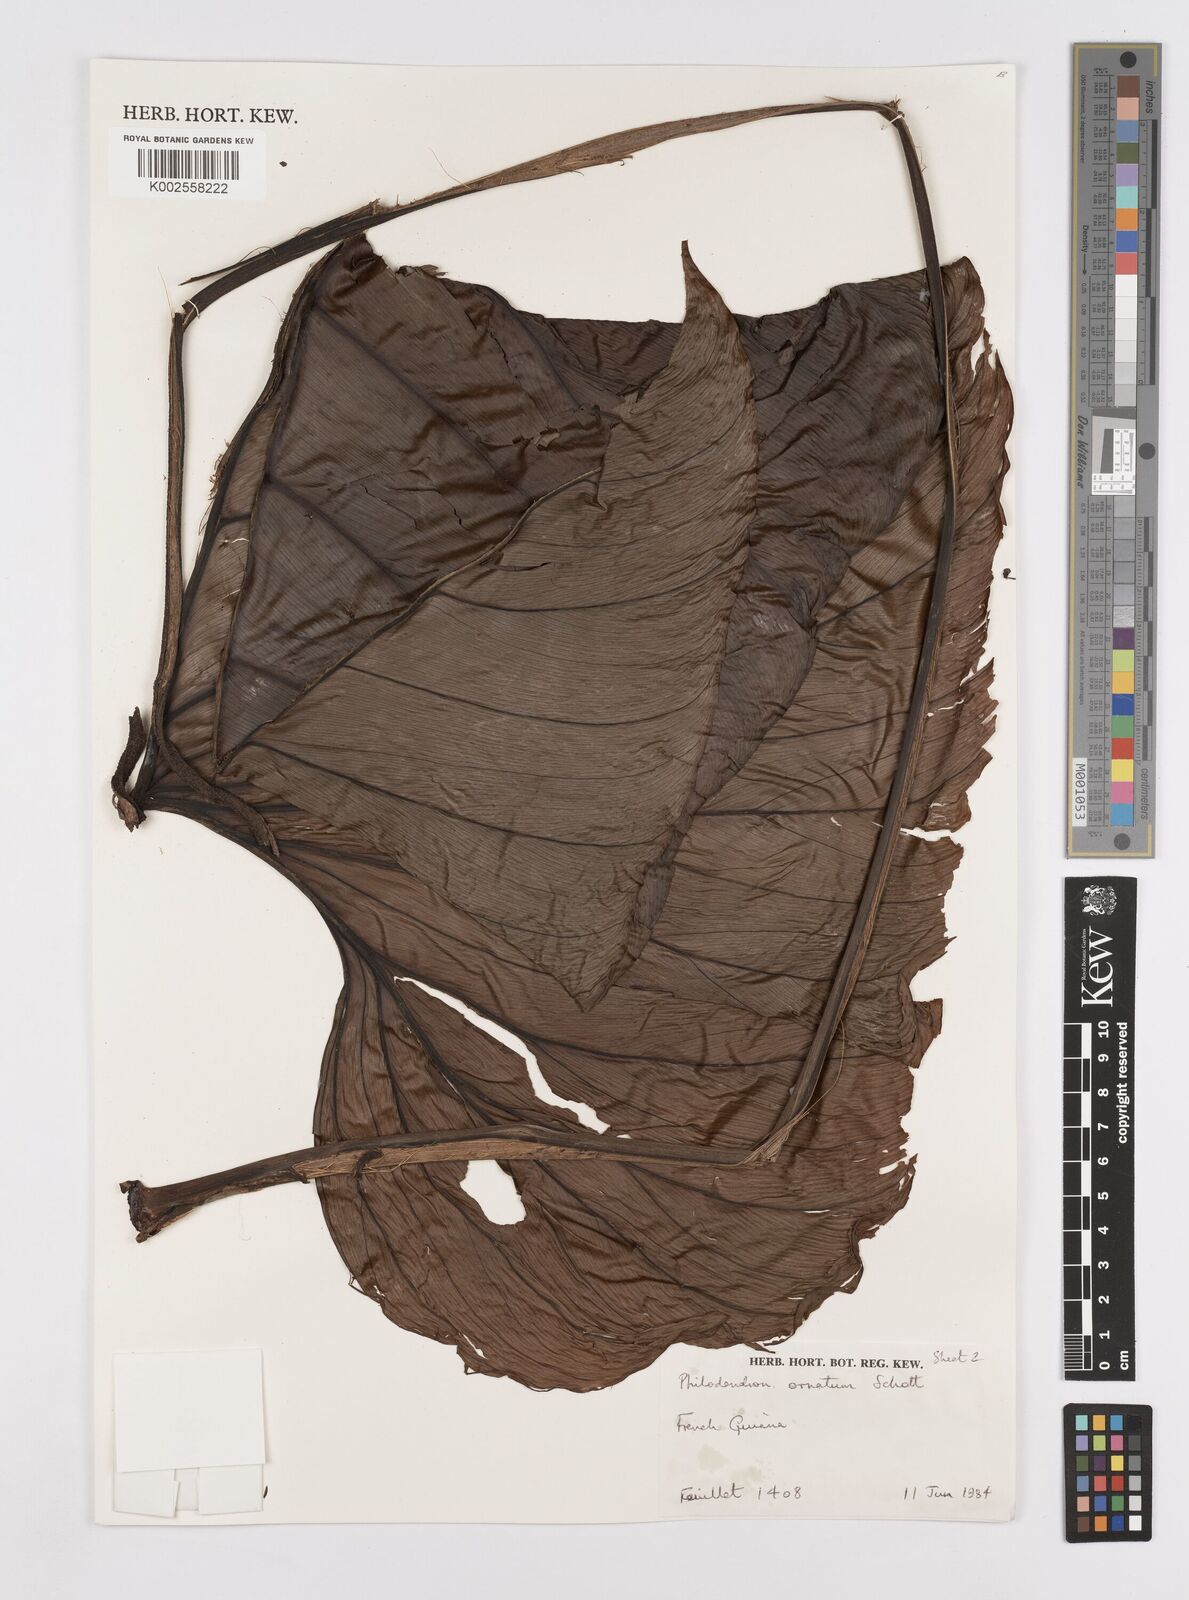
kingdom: Plantae
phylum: Tracheophyta
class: Liliopsida
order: Alismatales
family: Araceae
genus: Philodendron
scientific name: Philodendron ornatum
